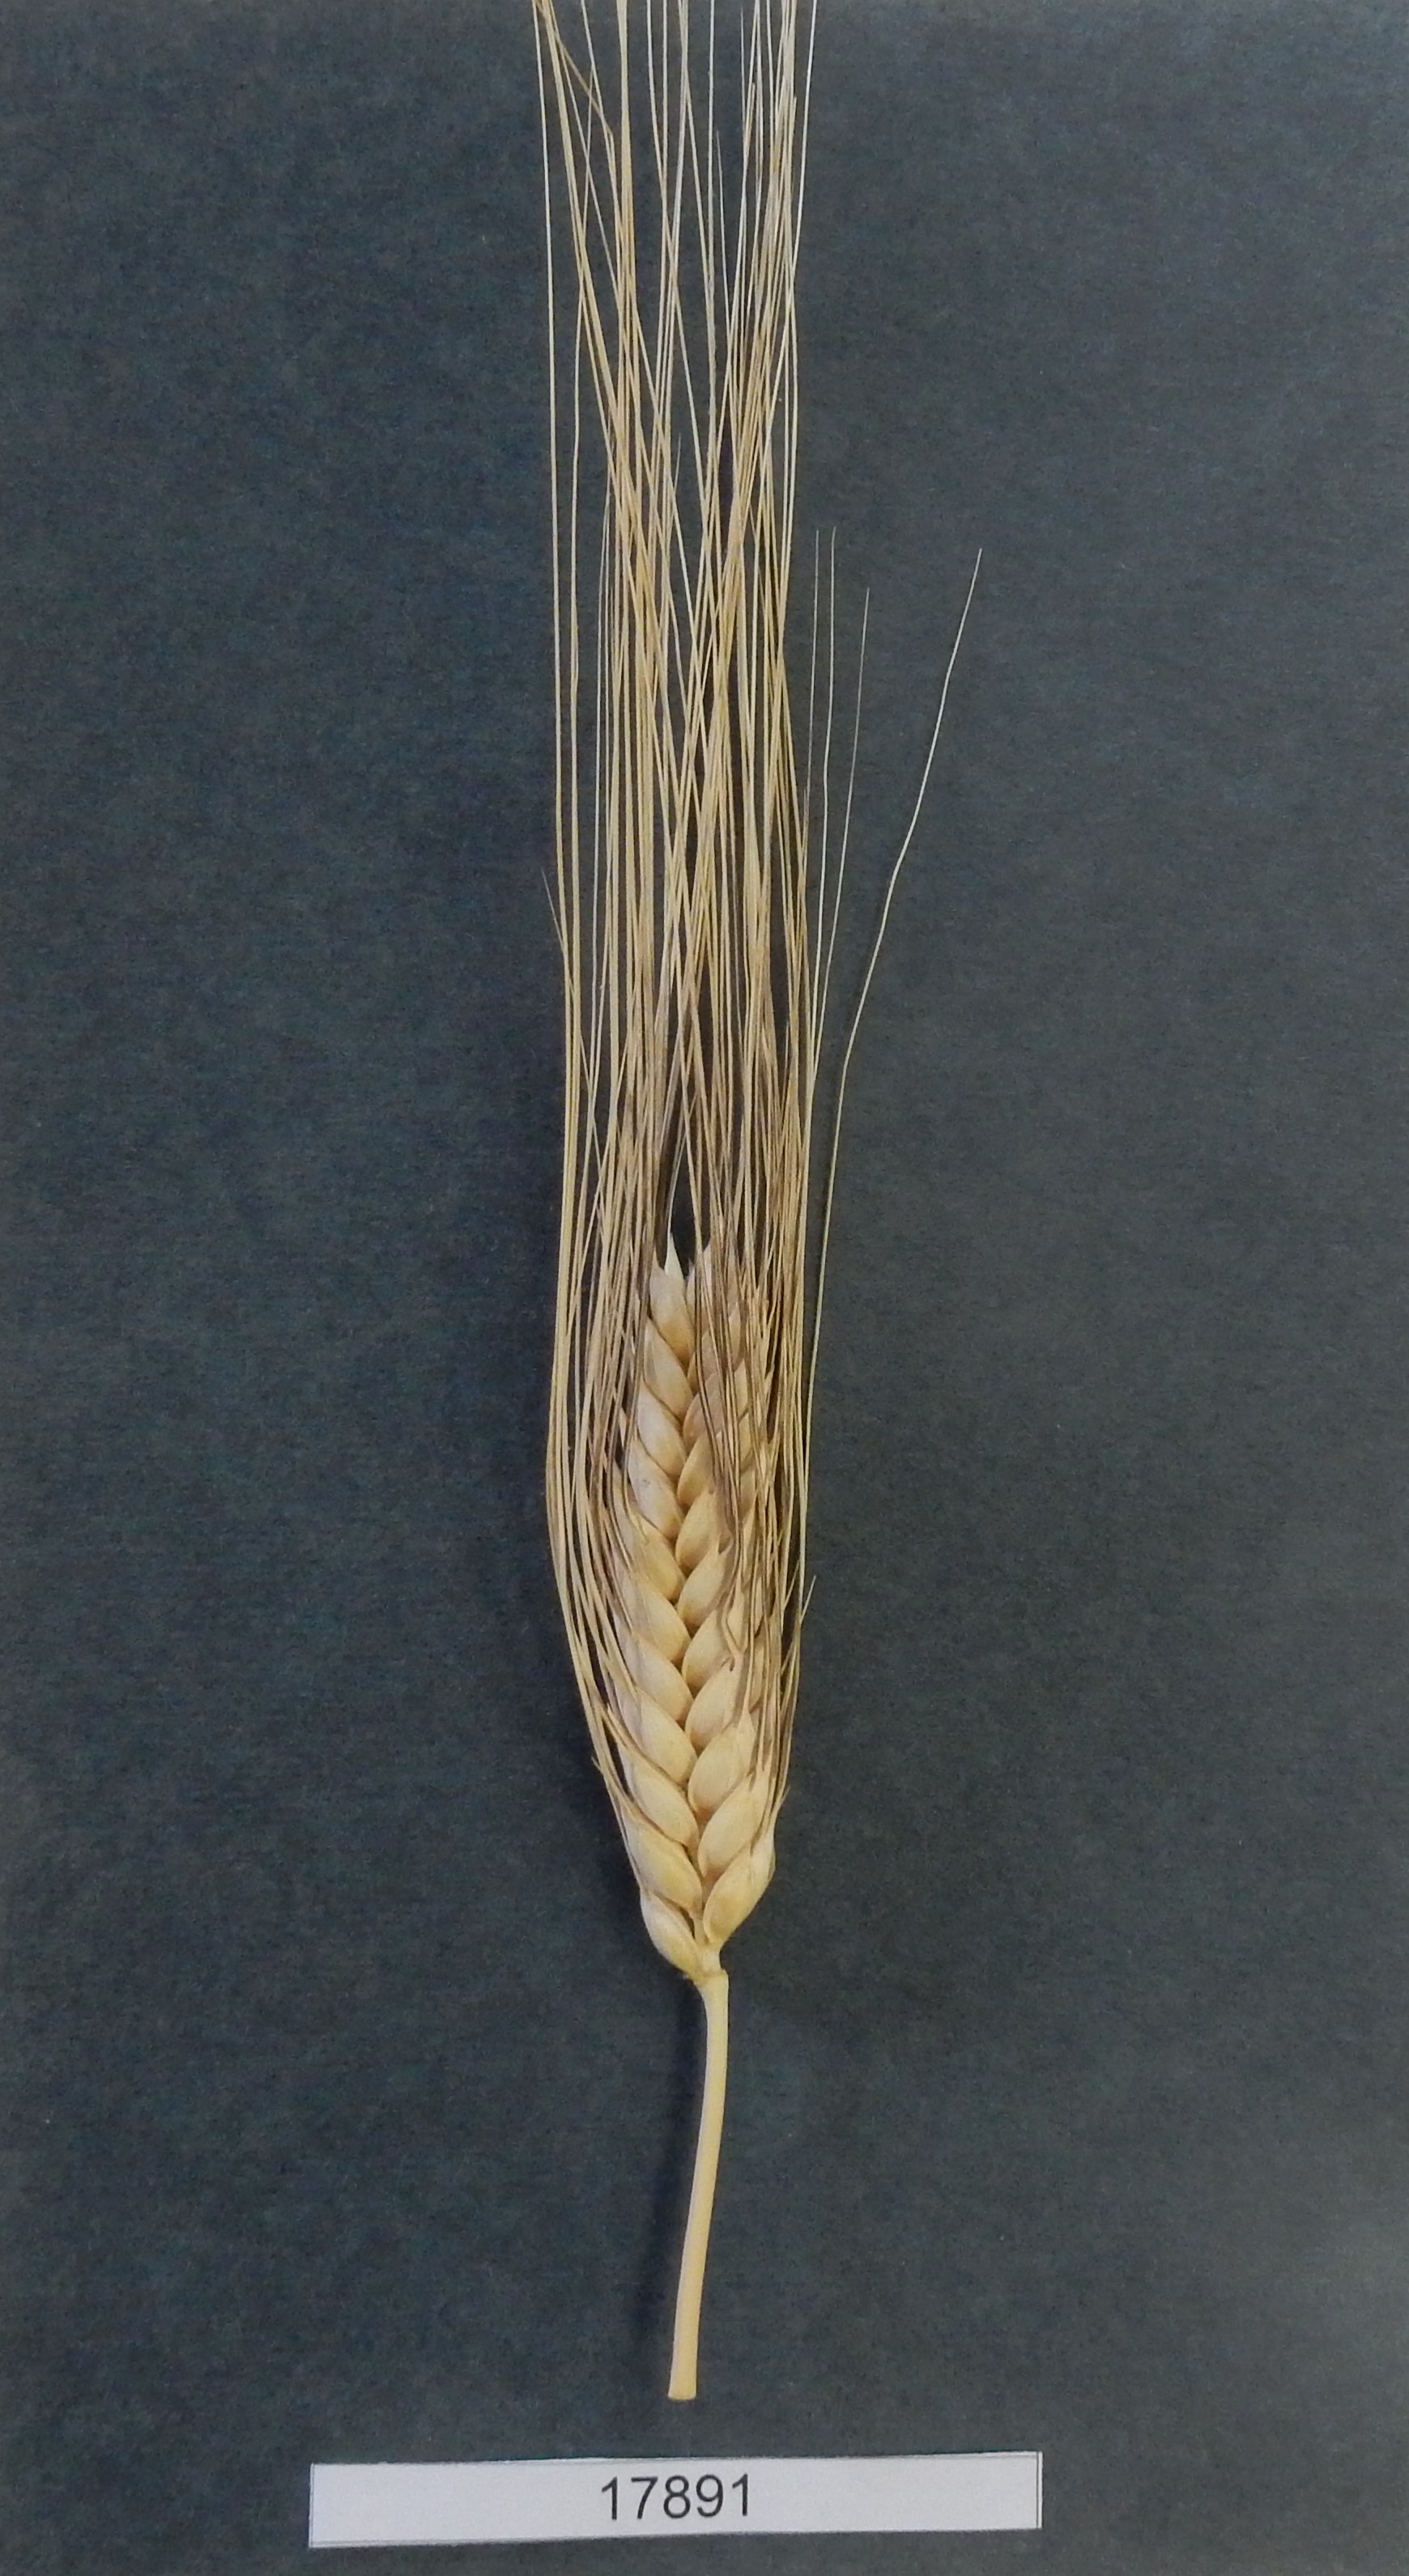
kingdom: Plantae
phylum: Tracheophyta
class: Liliopsida
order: Poales
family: Poaceae
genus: Triticum
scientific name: Triticum turgidum
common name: Wheat
